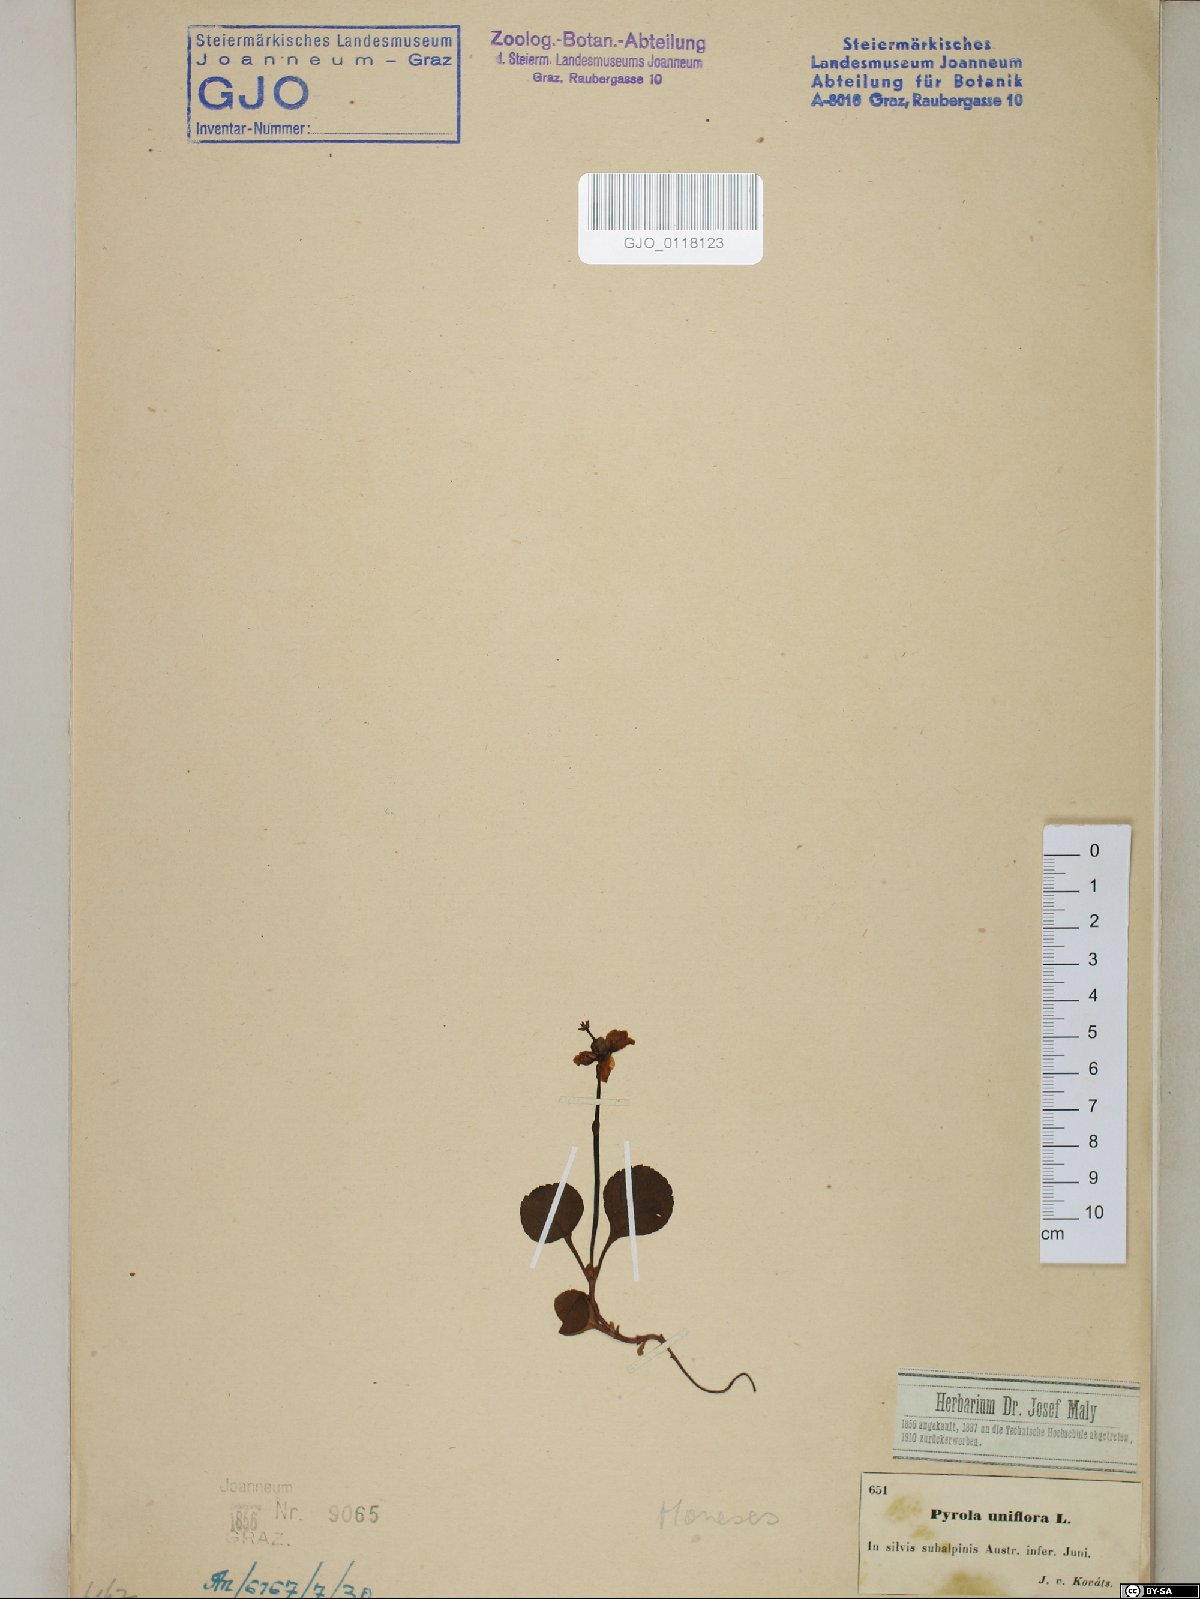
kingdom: Plantae
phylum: Tracheophyta
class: Magnoliopsida
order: Ericales
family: Ericaceae
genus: Moneses
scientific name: Moneses uniflora
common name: One-flowered wintergreen
